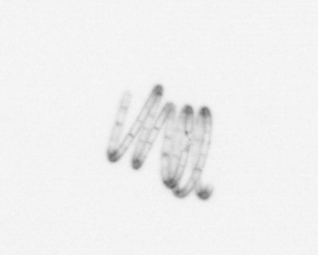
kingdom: Chromista
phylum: Ochrophyta
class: Bacillariophyceae
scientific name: Bacillariophyceae
